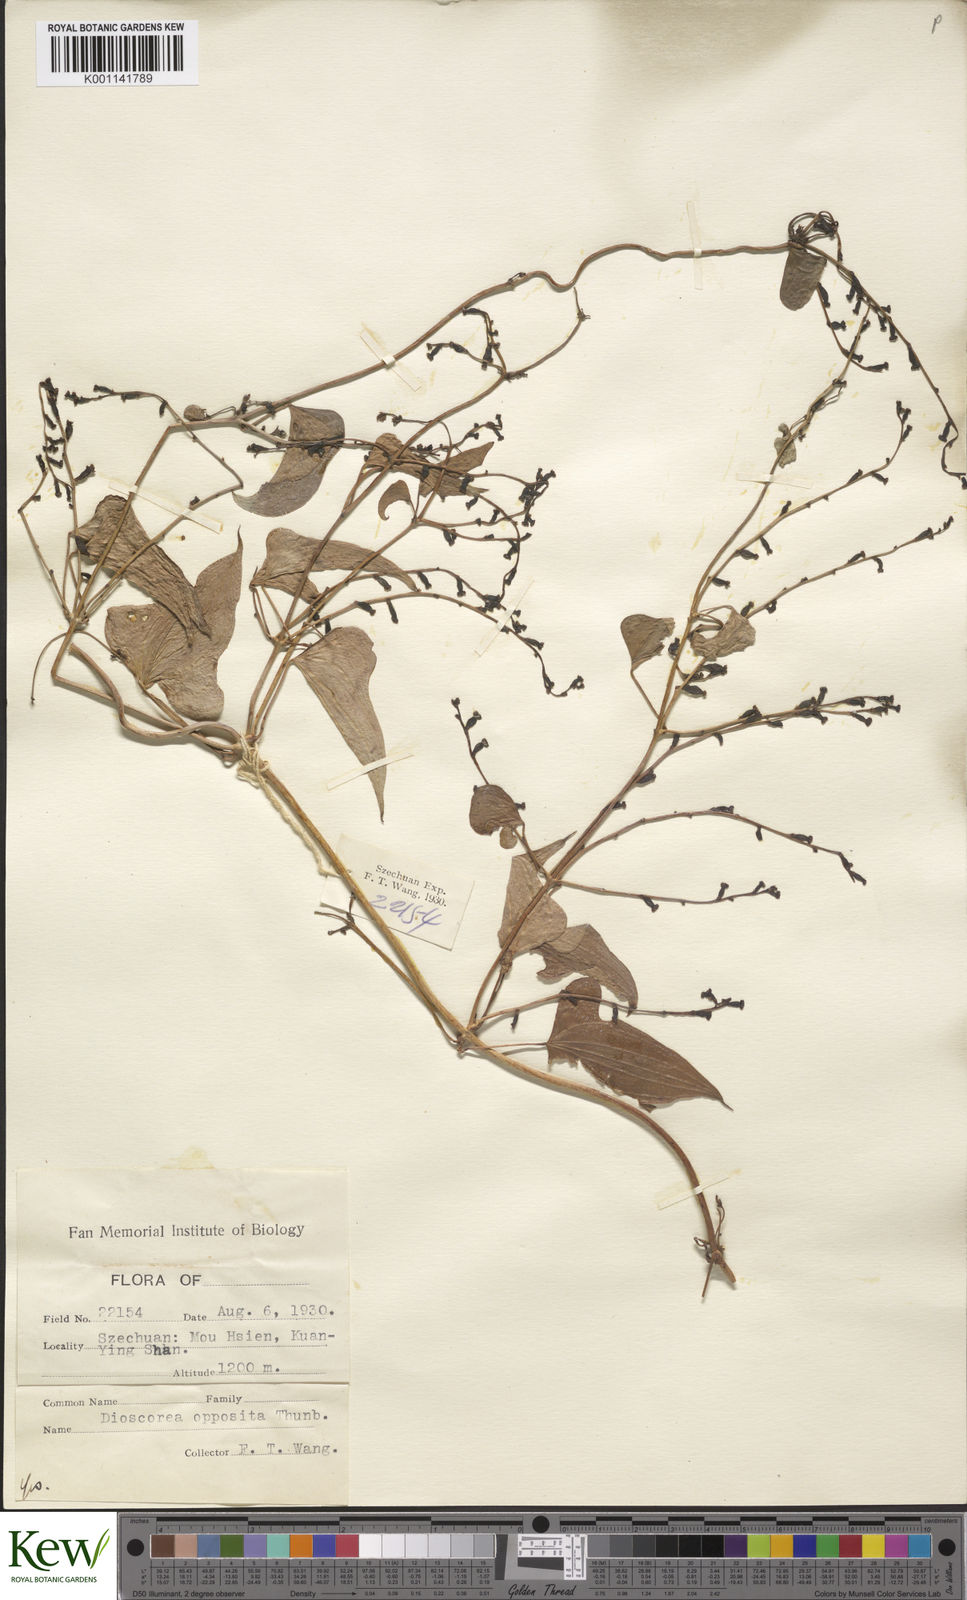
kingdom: Plantae
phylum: Tracheophyta
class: Liliopsida
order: Dioscoreales
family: Dioscoreaceae
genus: Dioscorea
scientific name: Dioscorea oppositifolia
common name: Chinese yam
